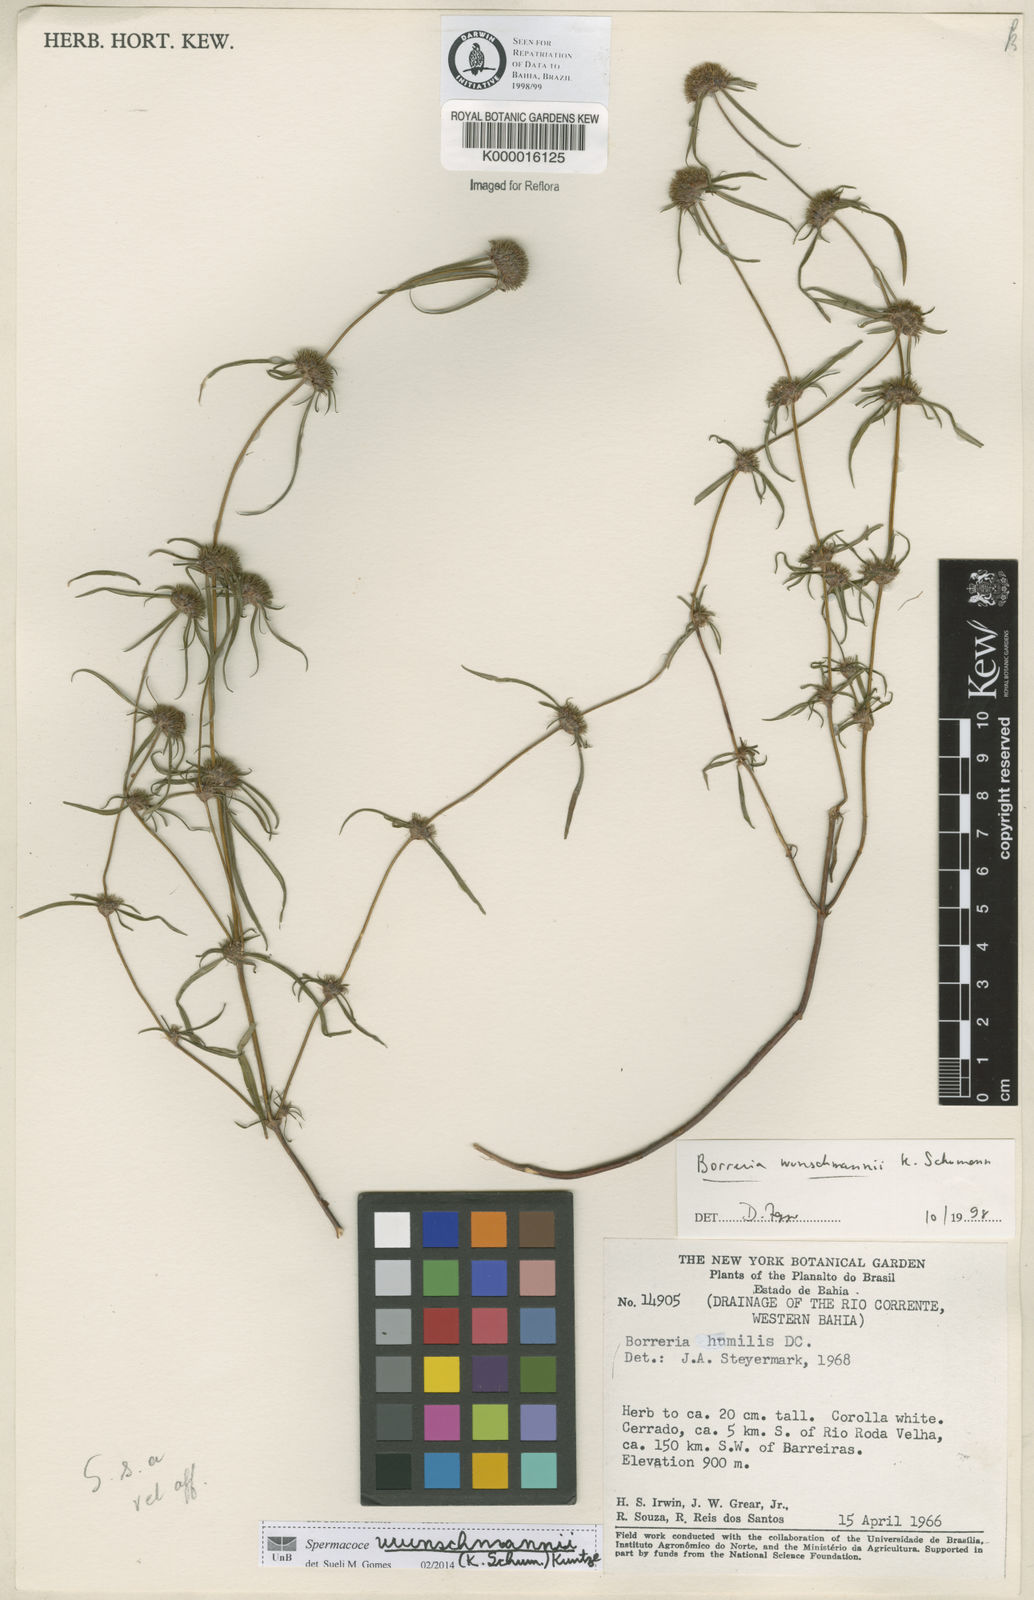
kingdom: Plantae
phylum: Tracheophyta
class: Magnoliopsida
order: Gentianales
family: Rubiaceae
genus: Spermacoce
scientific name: Spermacoce wunschmannii
